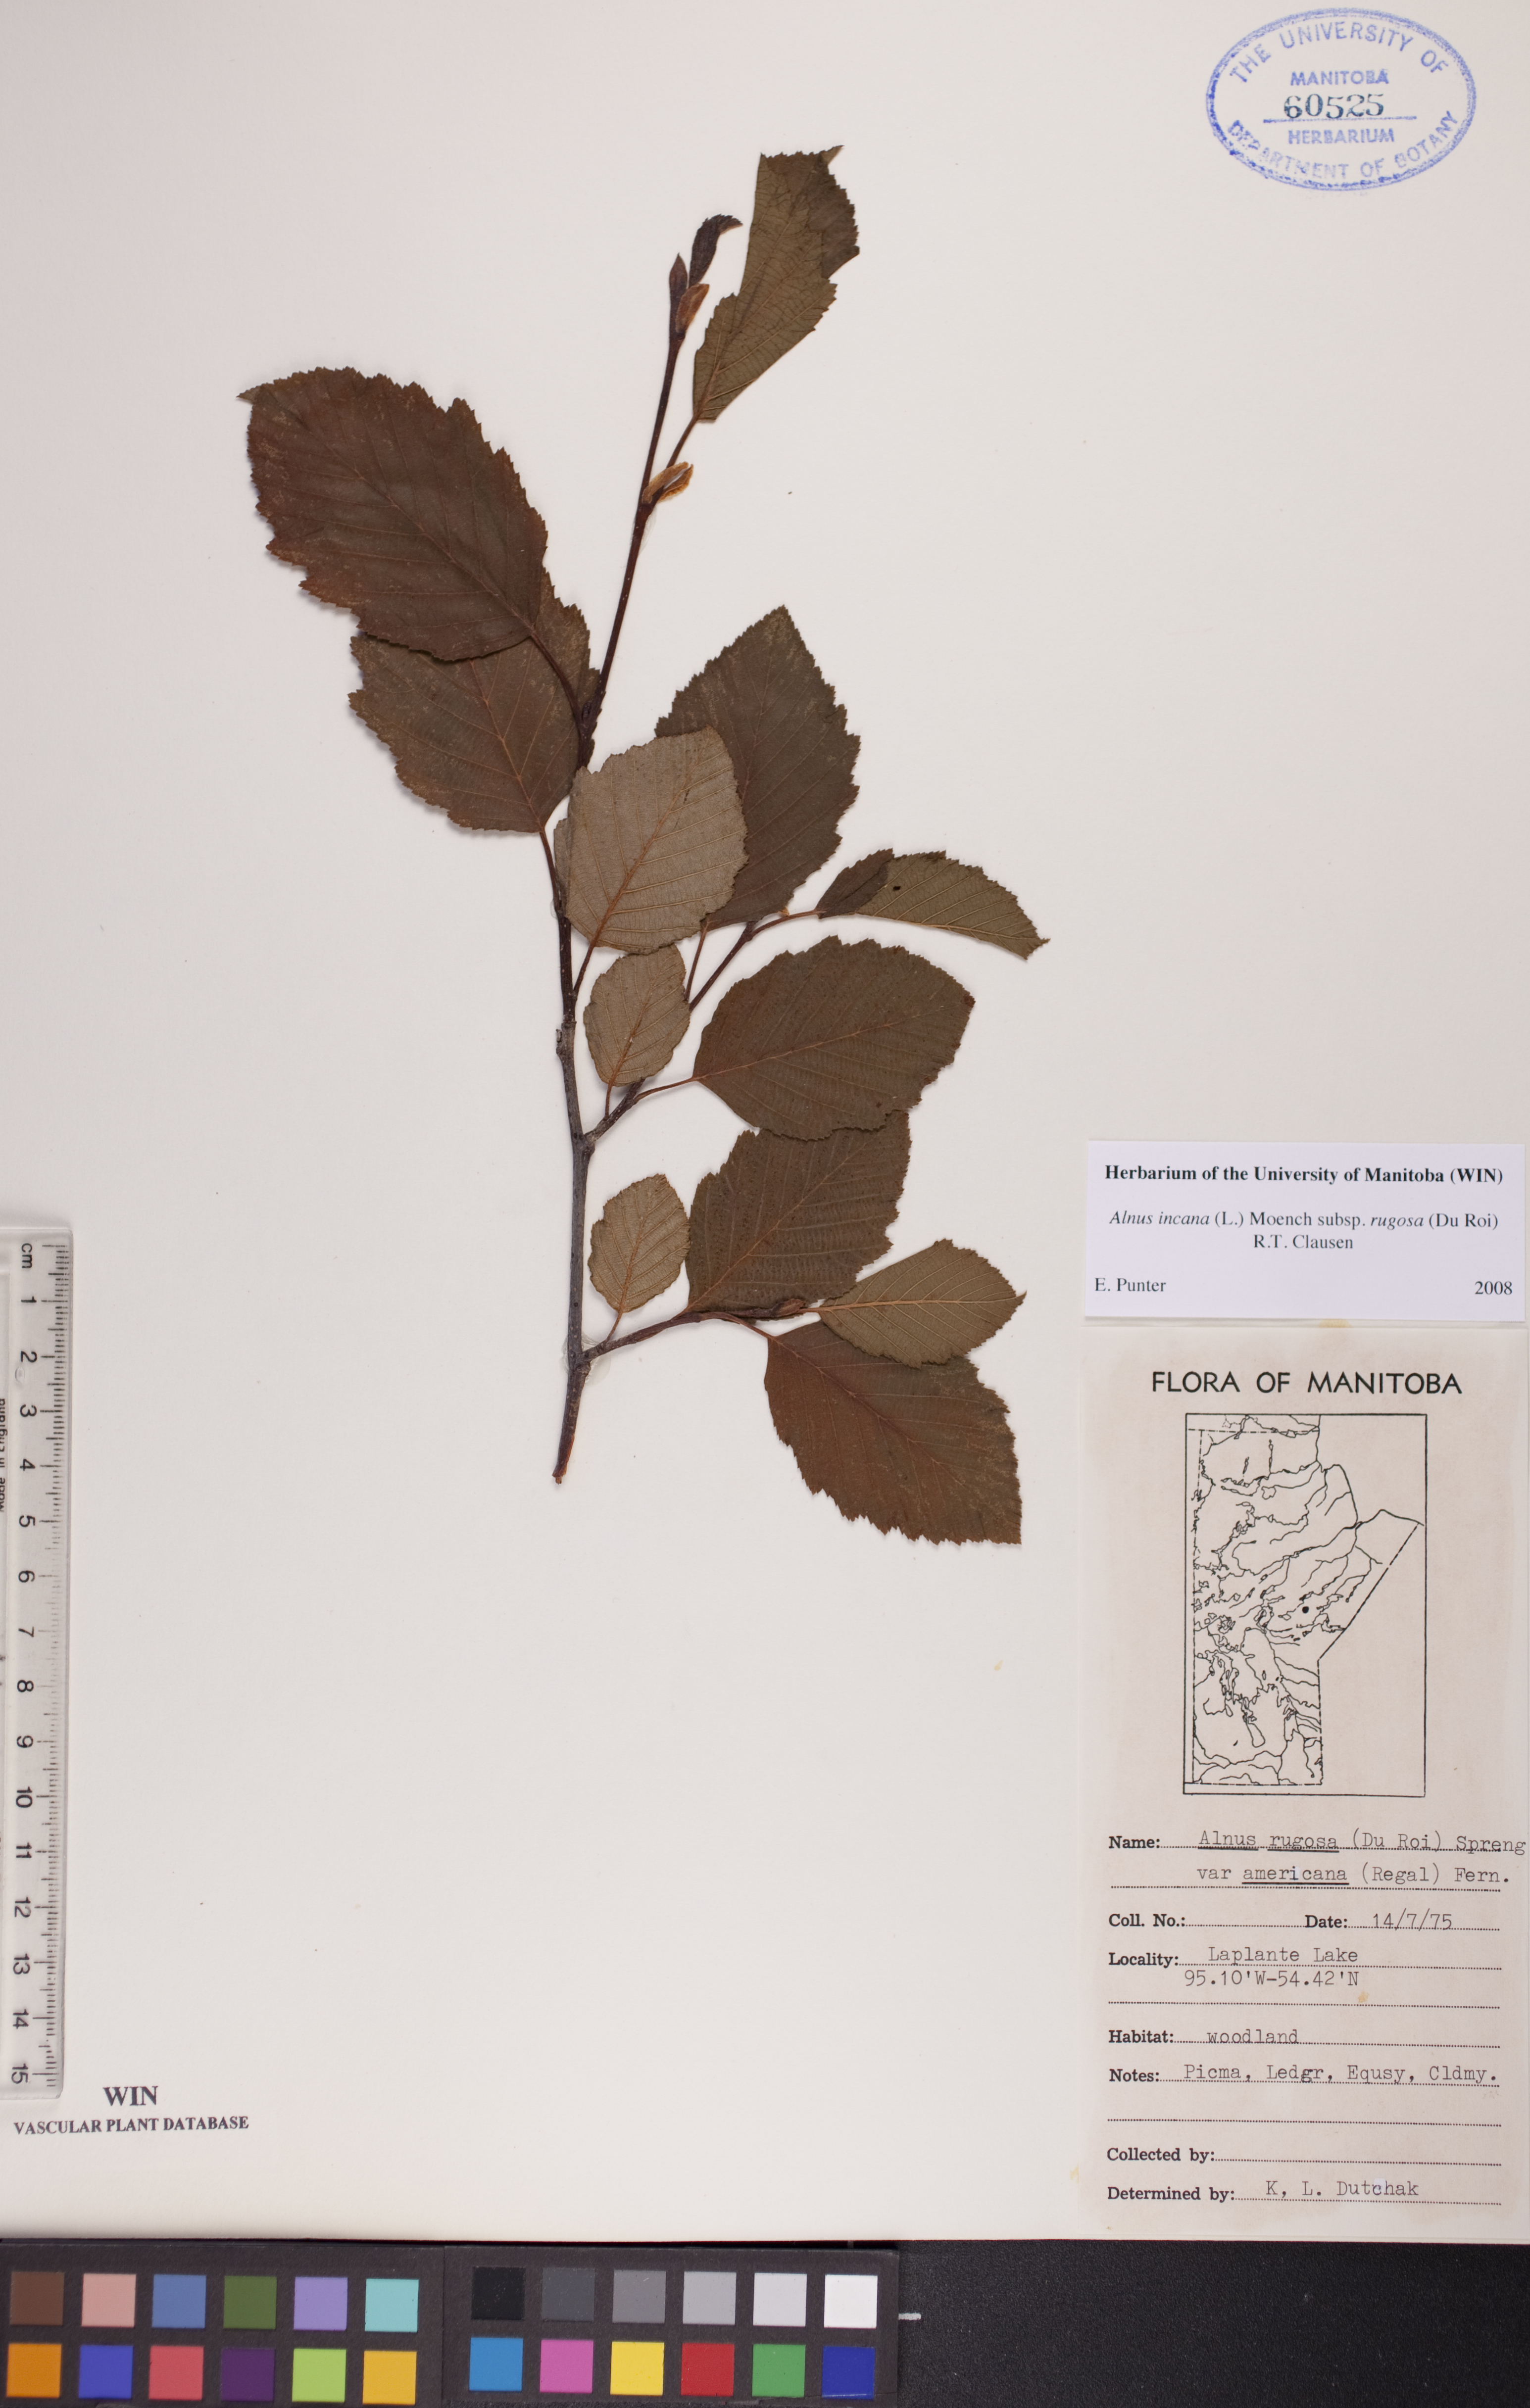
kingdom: Plantae
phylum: Tracheophyta
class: Magnoliopsida
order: Fagales
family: Betulaceae
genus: Alnus
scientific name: Alnus incana
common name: Grey alder
